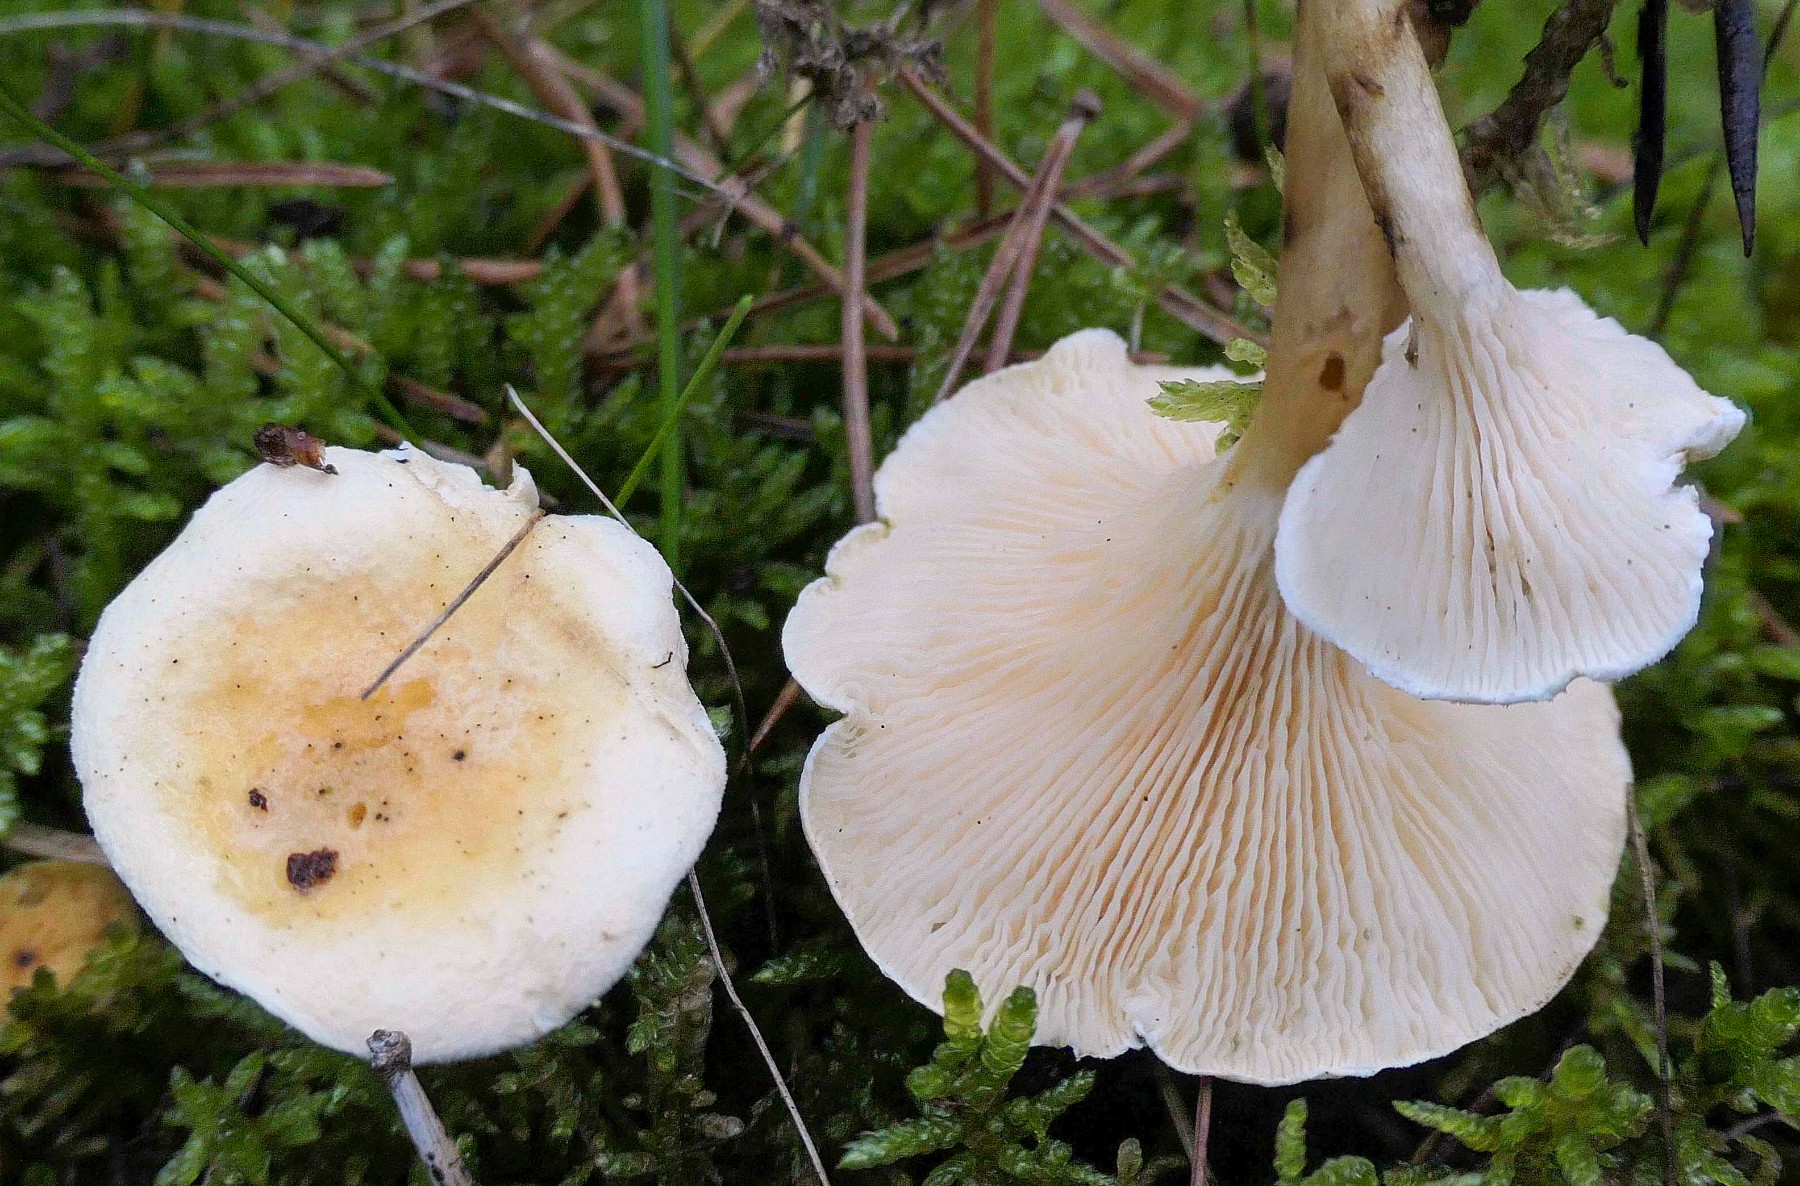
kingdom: Fungi
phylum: Basidiomycota
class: Agaricomycetes
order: Boletales
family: Hygrophoropsidaceae
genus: Hygrophoropsis
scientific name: Hygrophoropsis pallida
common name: bleg orangekantarel
